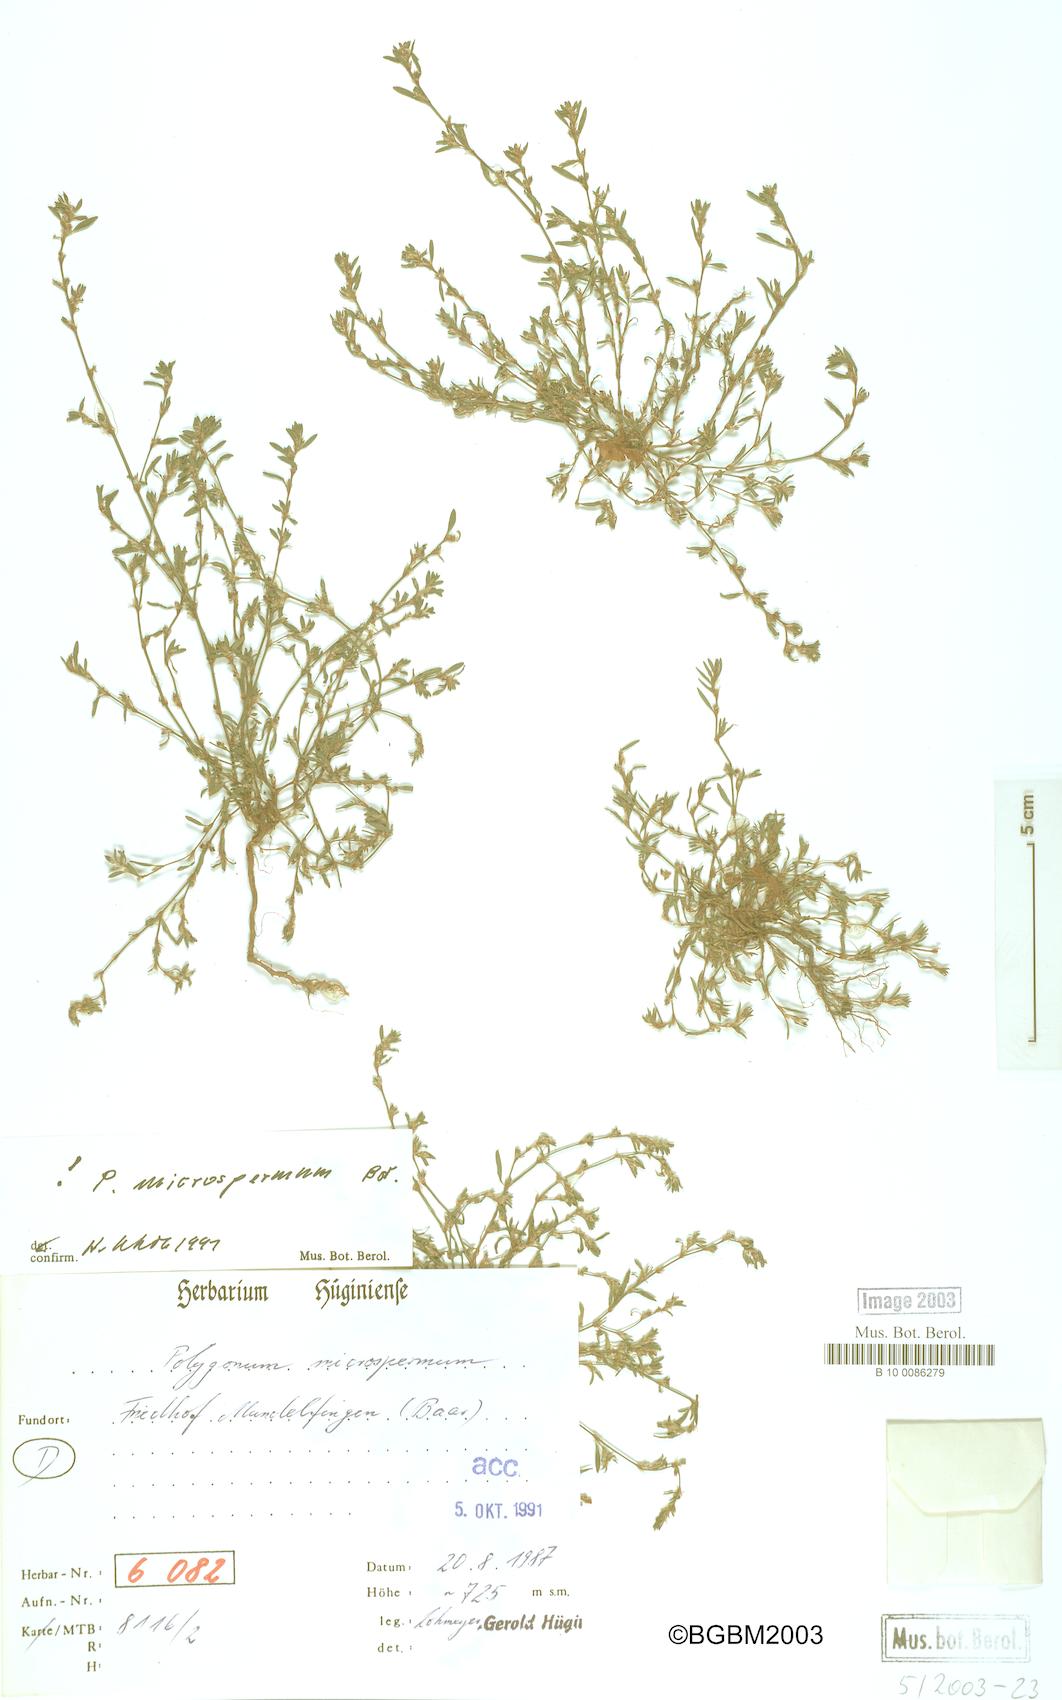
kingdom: Plantae
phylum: Tracheophyta
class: Magnoliopsida
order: Caryophyllales
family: Polygonaceae
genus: Polygonum
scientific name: Polygonum
